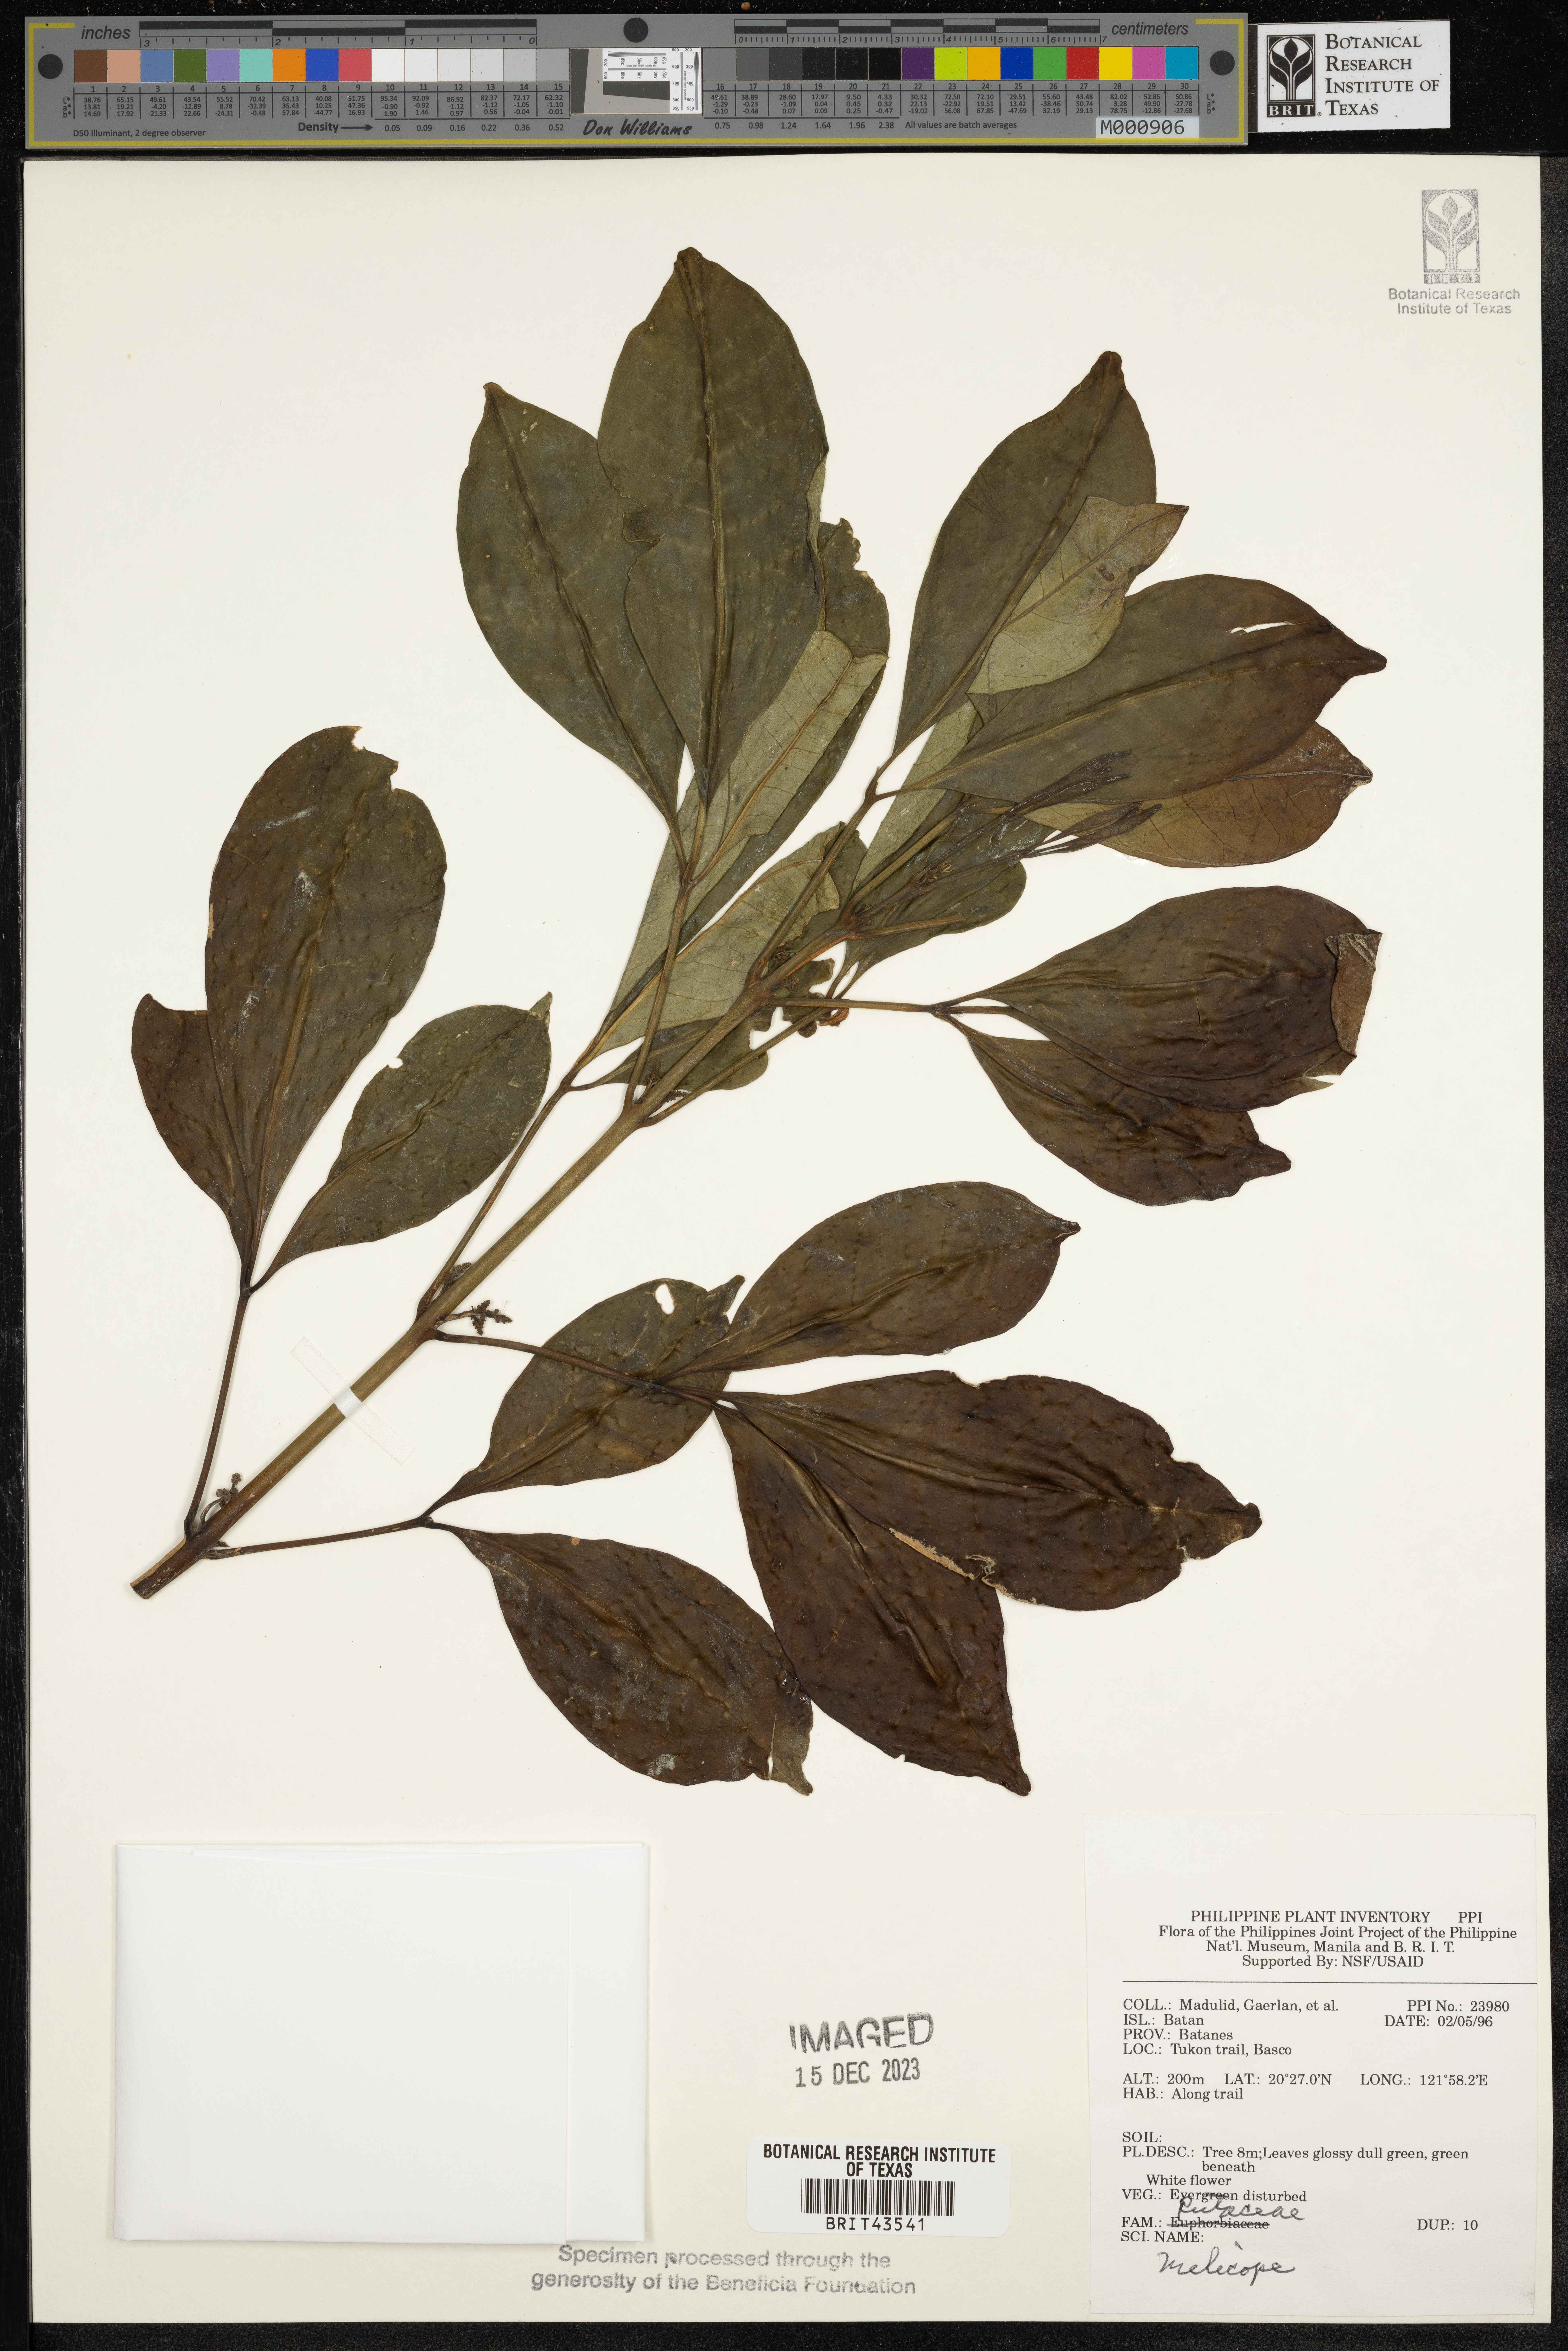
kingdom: Plantae
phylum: Tracheophyta
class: Magnoliopsida
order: Sapindales
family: Rutaceae
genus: Melicope
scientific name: Melicope
